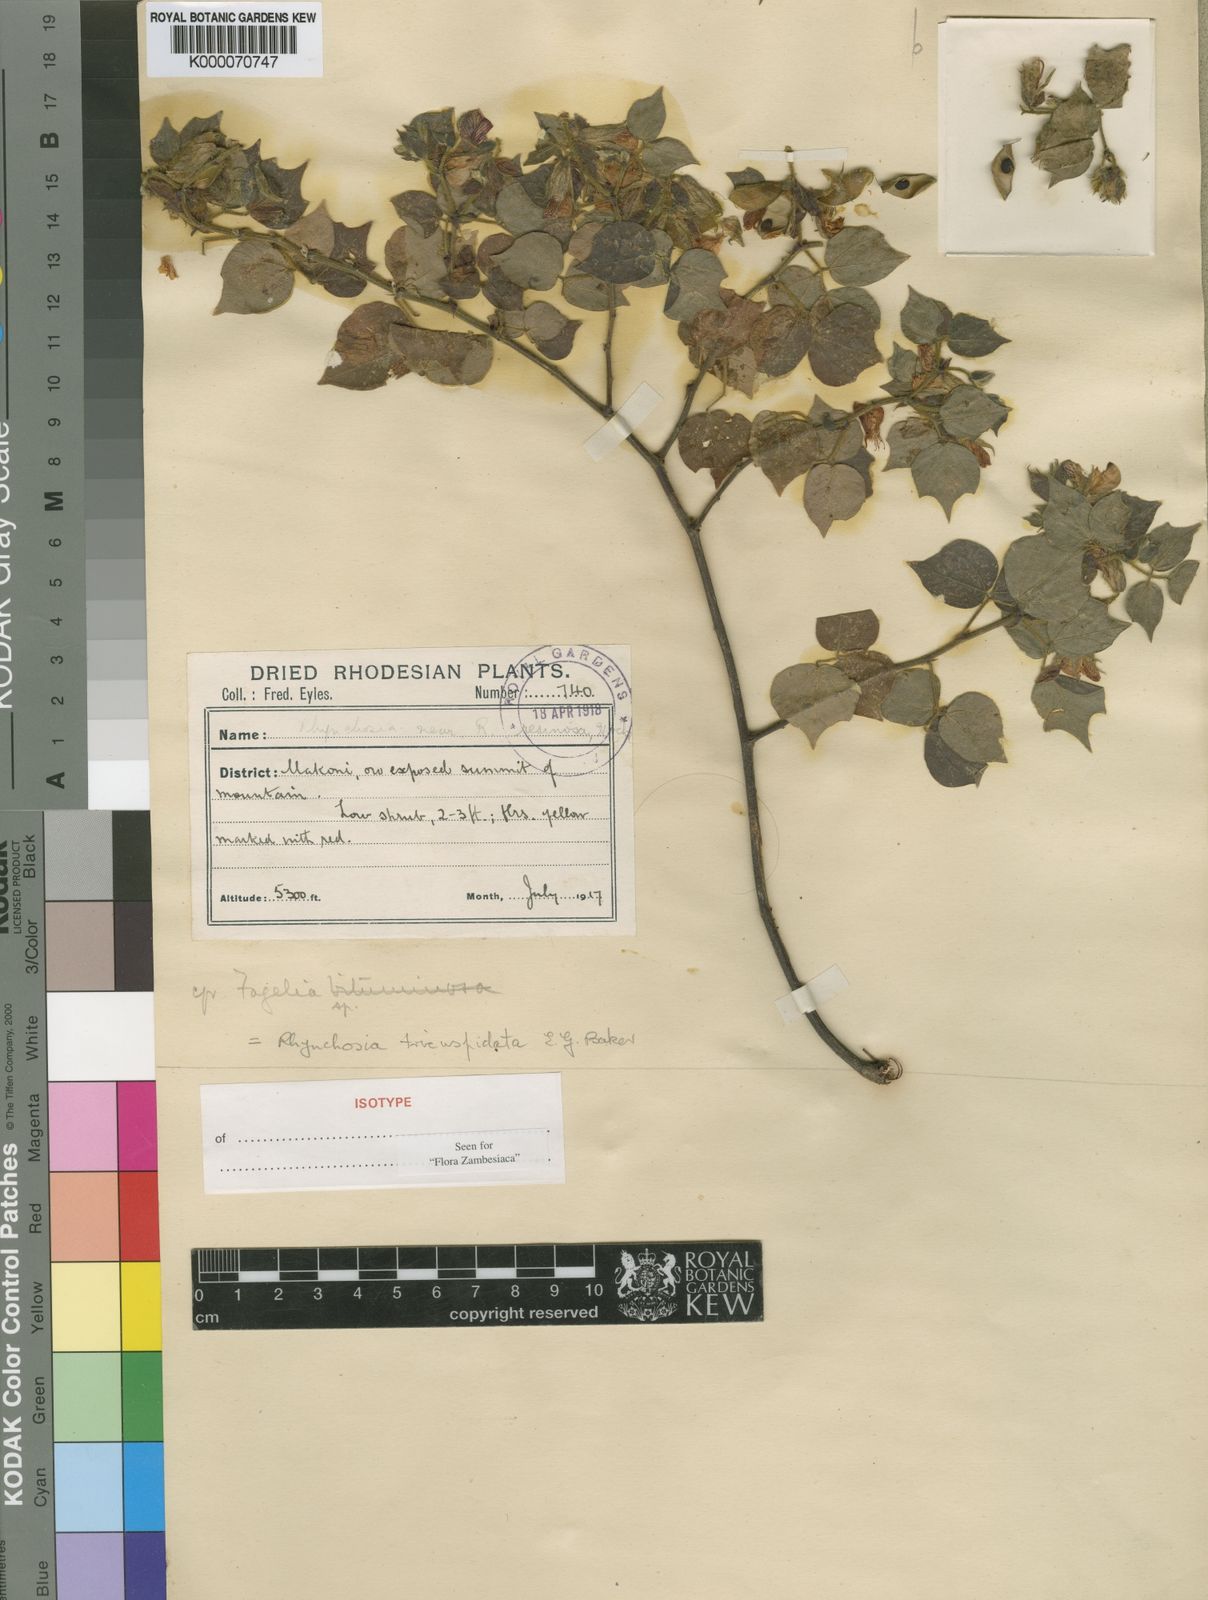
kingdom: Plantae
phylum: Tracheophyta
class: Magnoliopsida
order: Fabales
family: Fabaceae
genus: Rhynchosia
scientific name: Rhynchosia tricuspidata
